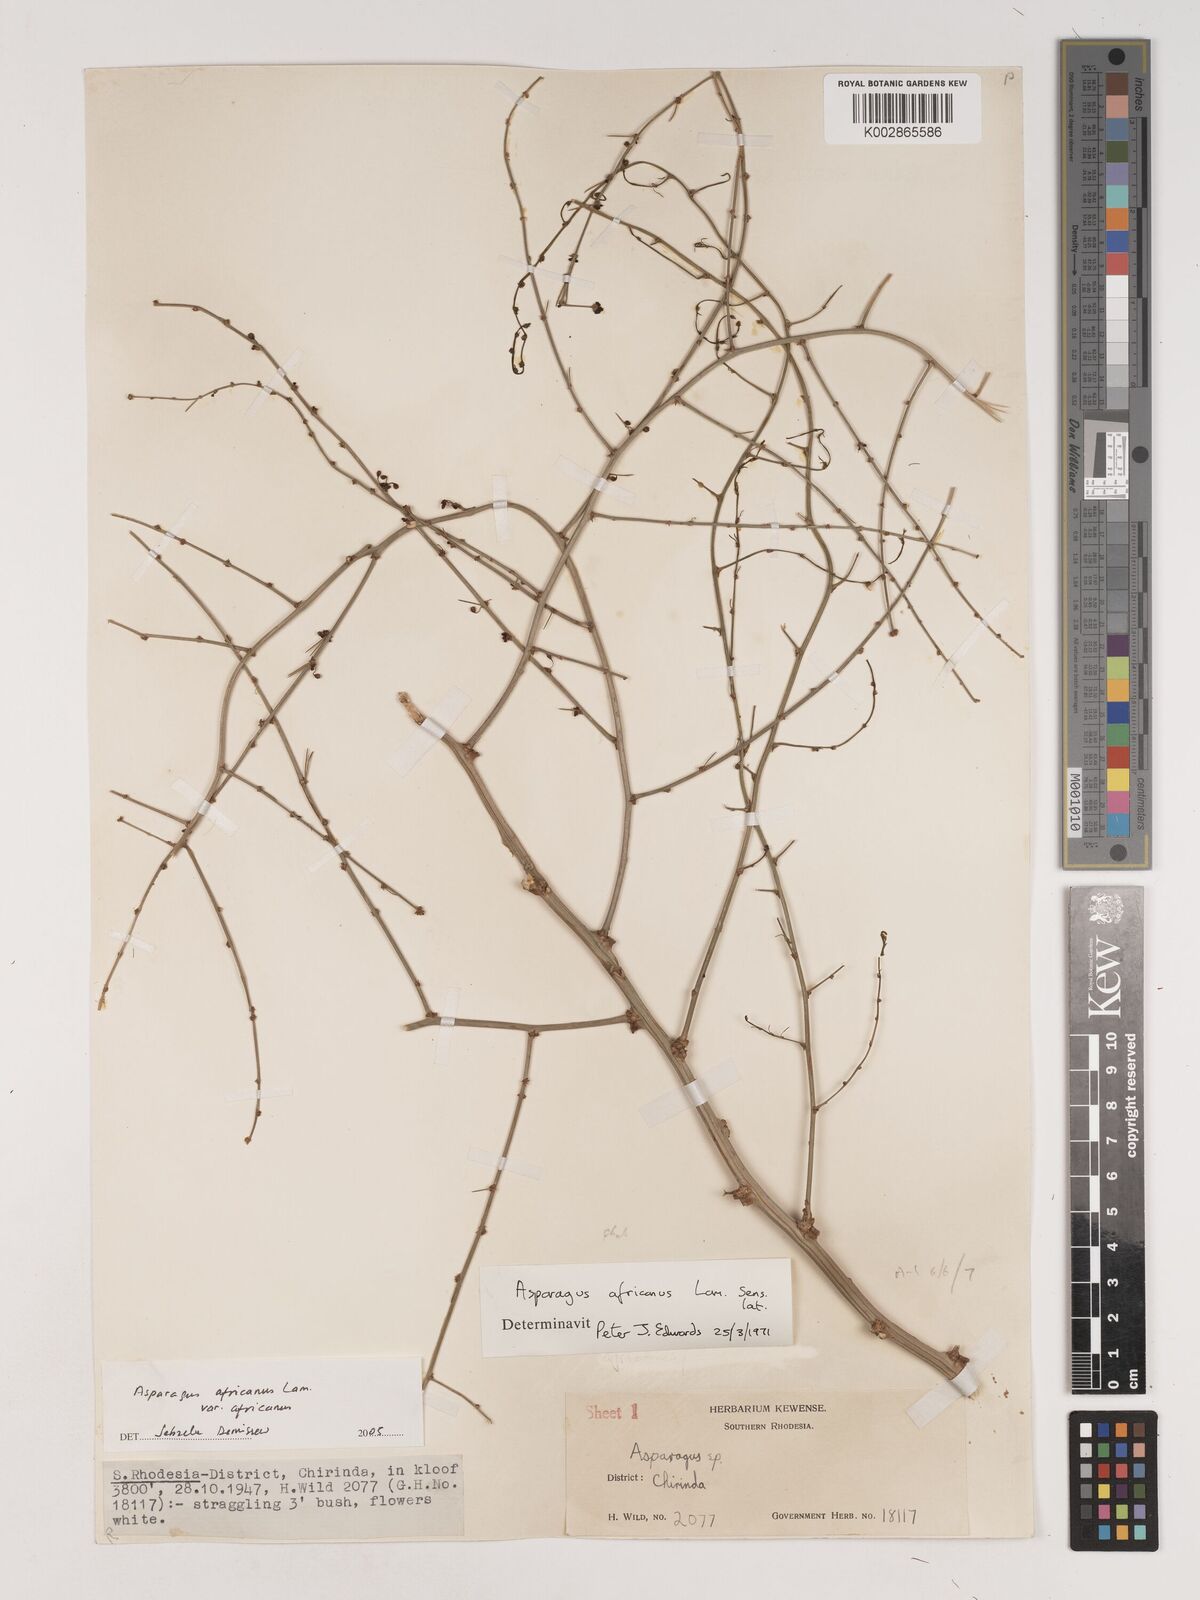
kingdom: Plantae
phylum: Tracheophyta
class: Liliopsida
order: Asparagales
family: Asparagaceae
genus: Asparagus
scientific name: Asparagus africanus
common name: Asparagus-fern
